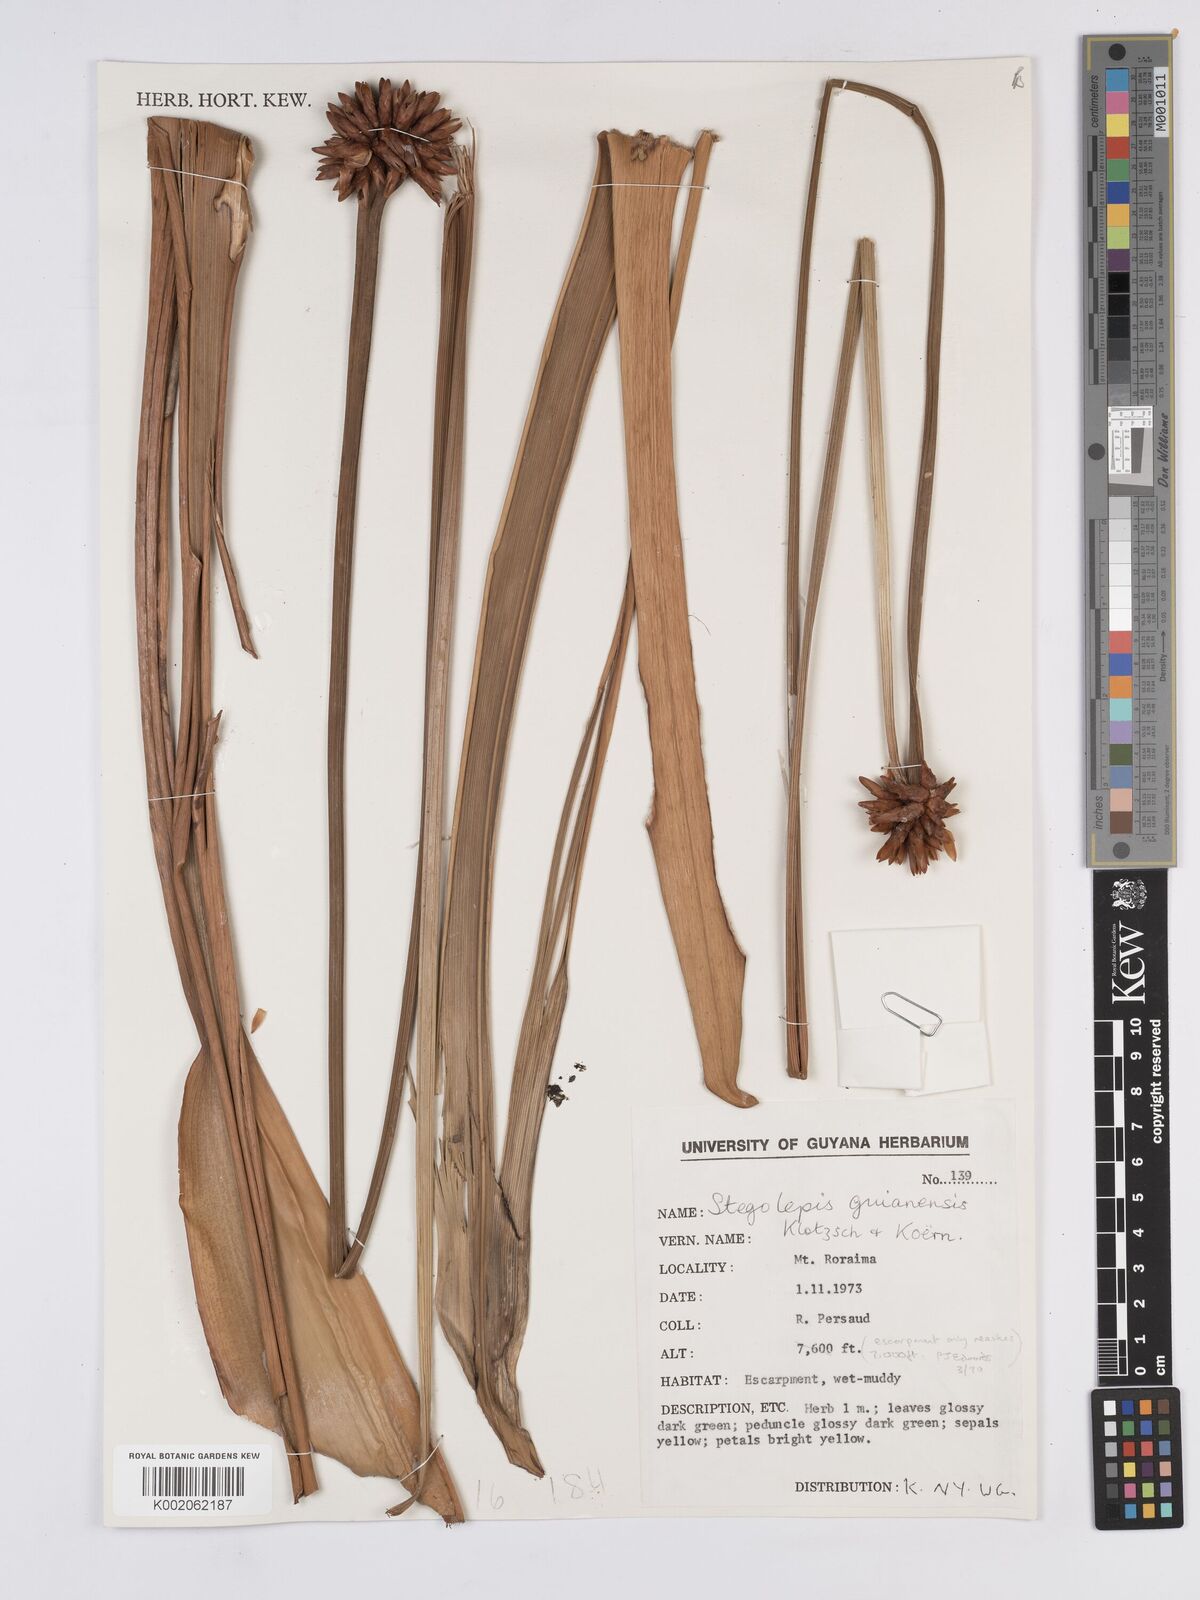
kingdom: Plantae
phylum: Tracheophyta
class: Liliopsida
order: Poales
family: Rapateaceae
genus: Stegolepis
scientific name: Stegolepis guianensis
